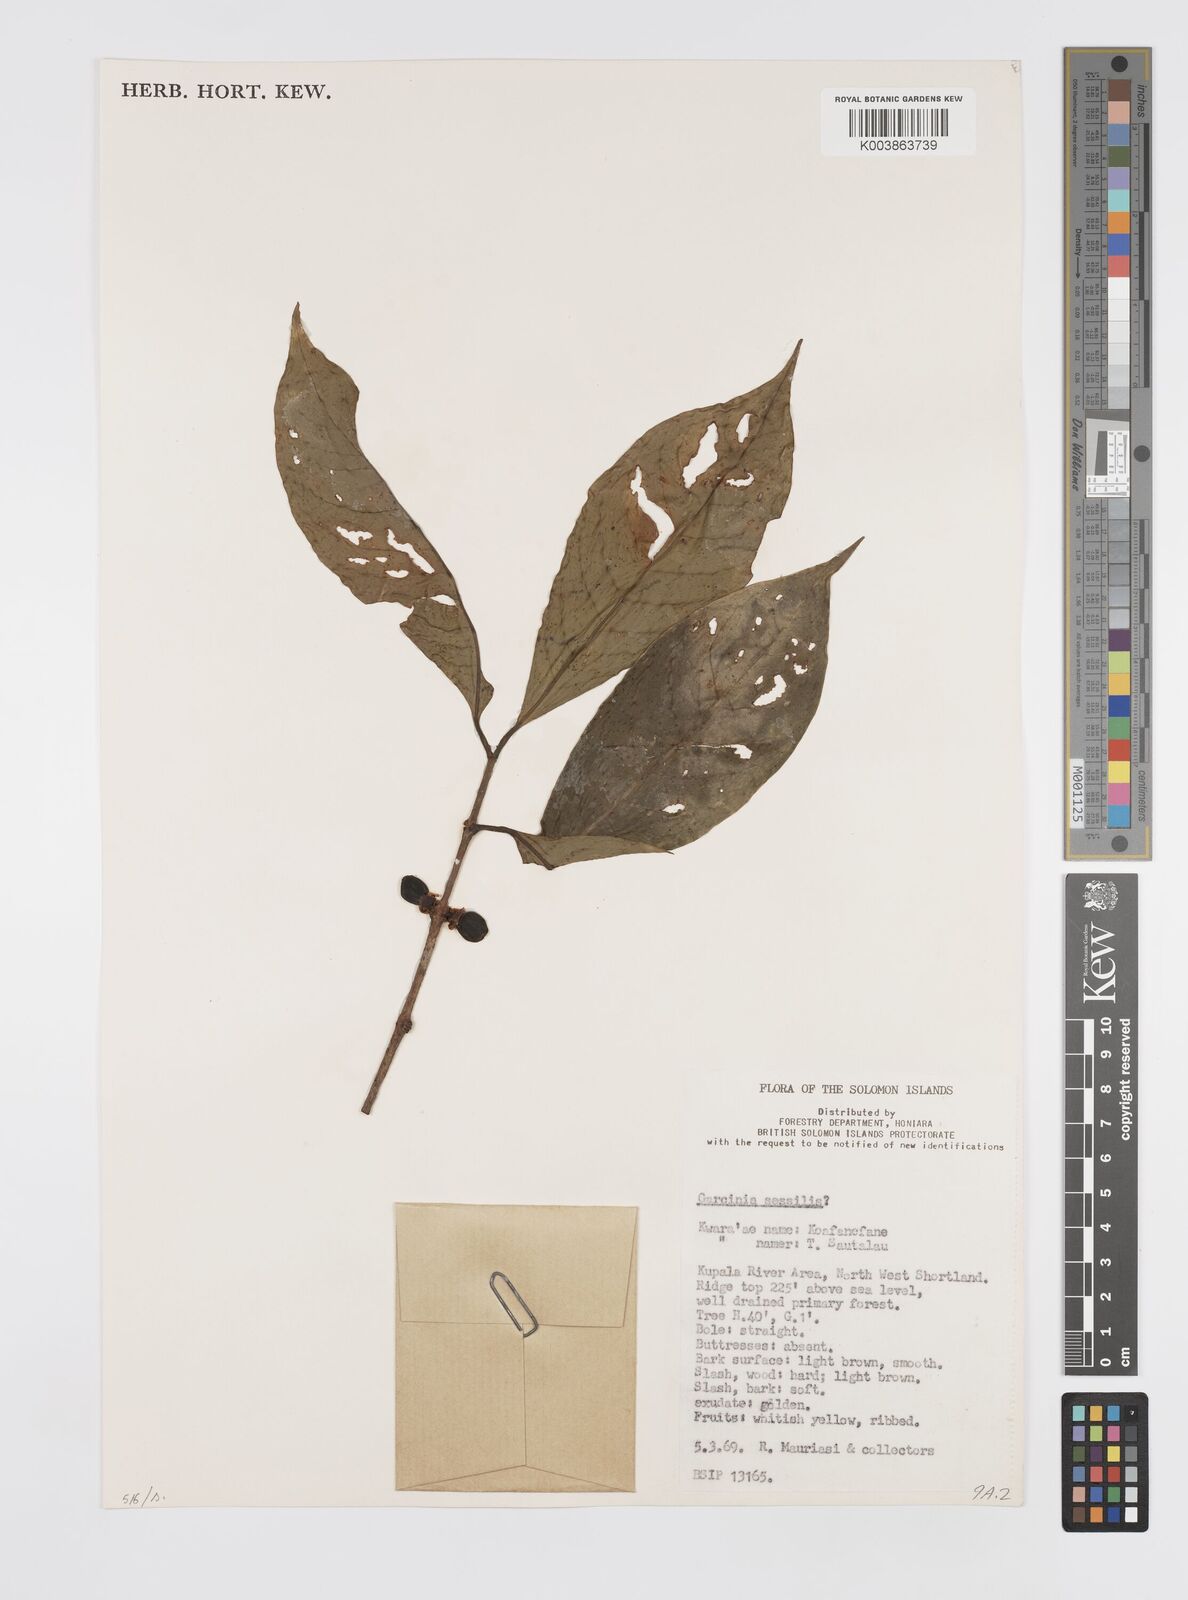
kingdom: Plantae
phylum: Tracheophyta
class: Magnoliopsida
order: Malpighiales
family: Clusiaceae
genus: Garcinia
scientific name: Garcinia sessilis
